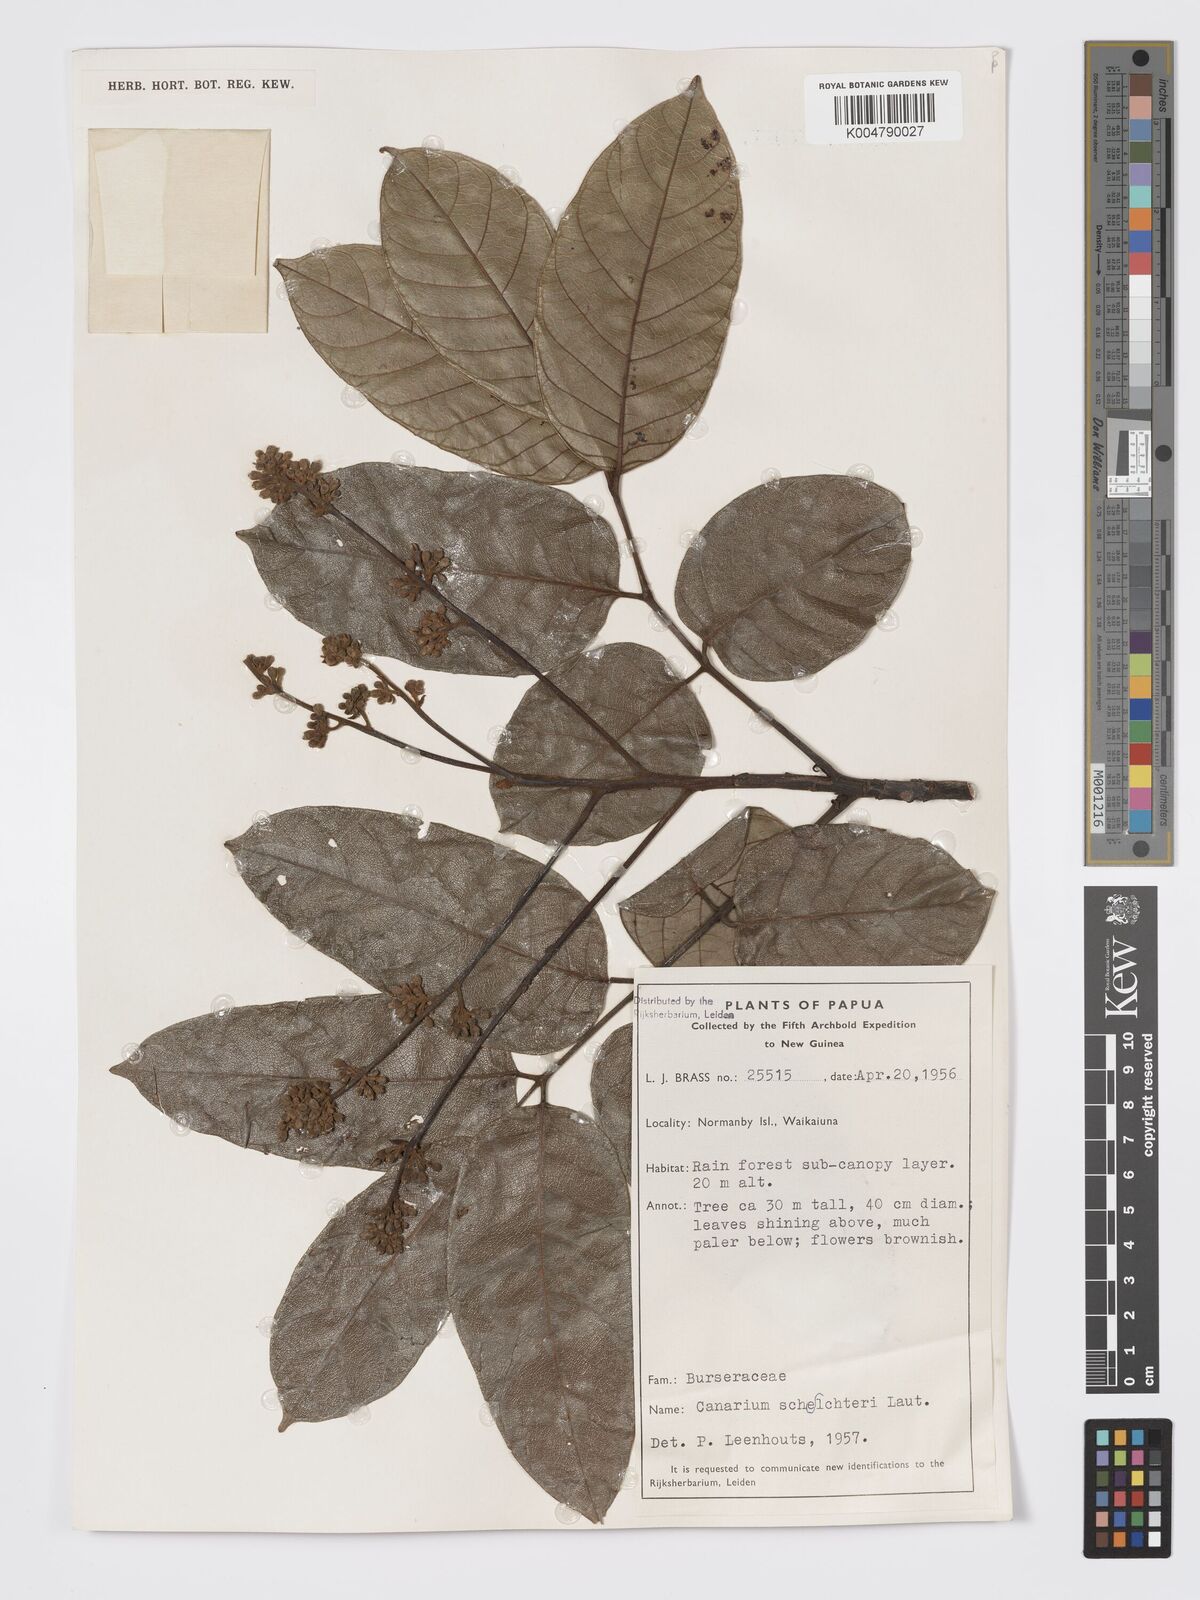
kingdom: Plantae
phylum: Tracheophyta
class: Magnoliopsida
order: Sapindales
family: Burseraceae
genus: Canarium
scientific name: Canarium schlechteri
